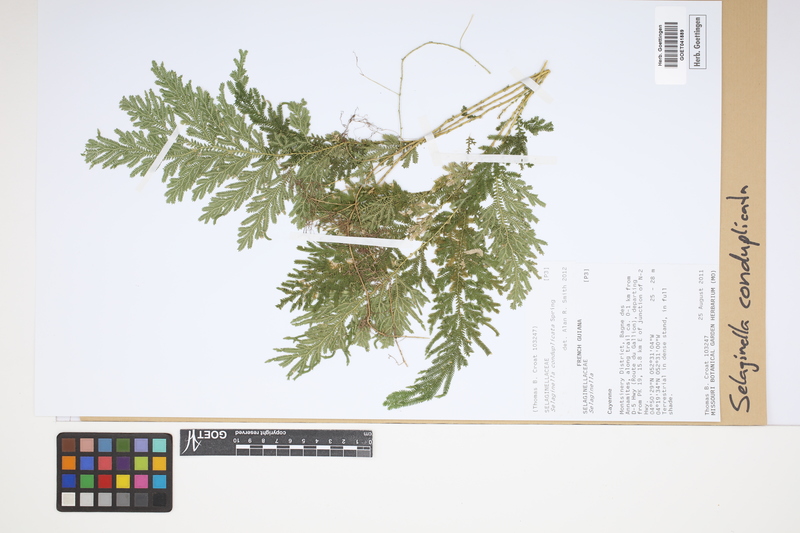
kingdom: Plantae
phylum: Tracheophyta
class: Lycopodiopsida
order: Selaginellales
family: Selaginellaceae
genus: Selaginella
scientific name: Selaginella conduplicata
